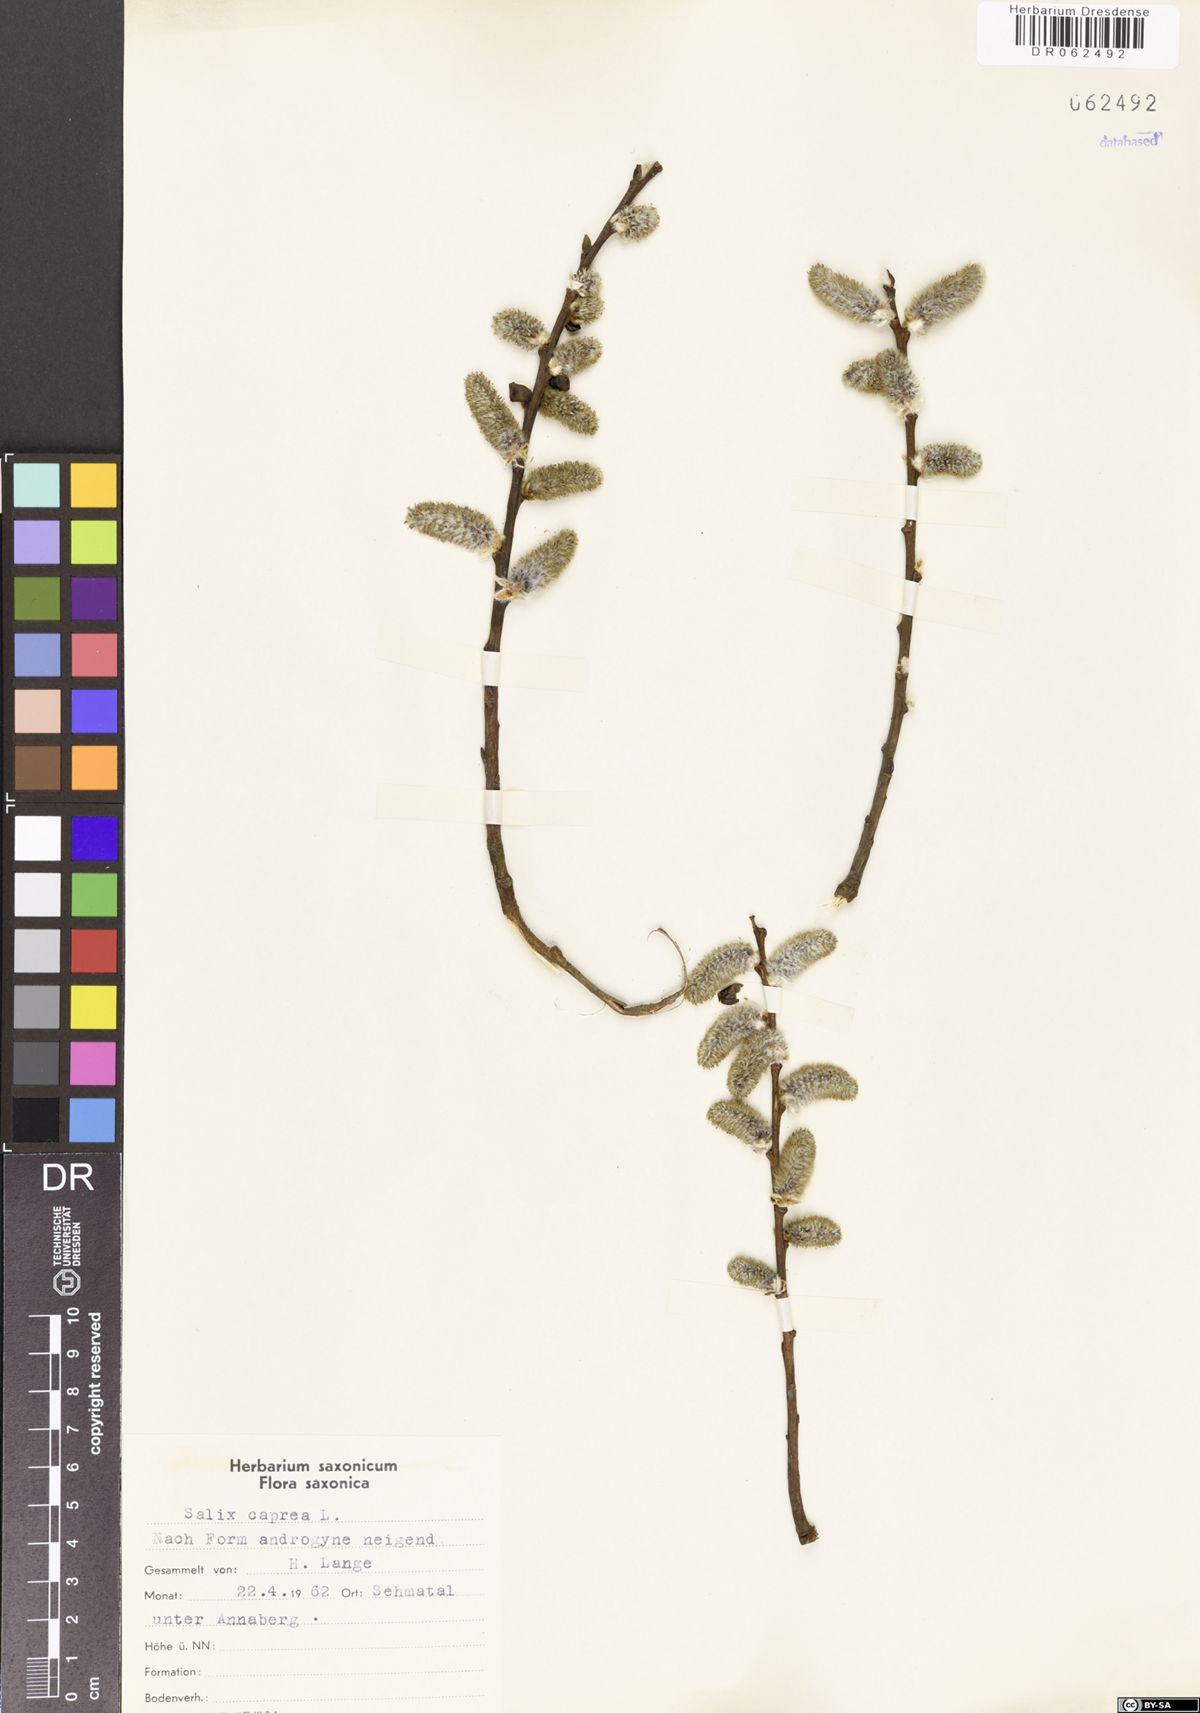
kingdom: Plantae
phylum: Tracheophyta
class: Magnoliopsida
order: Malpighiales
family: Salicaceae
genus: Salix
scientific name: Salix caprea
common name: Goat willow
